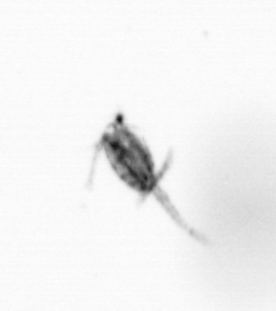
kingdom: Animalia
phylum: Arthropoda
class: Copepoda
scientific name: Copepoda
